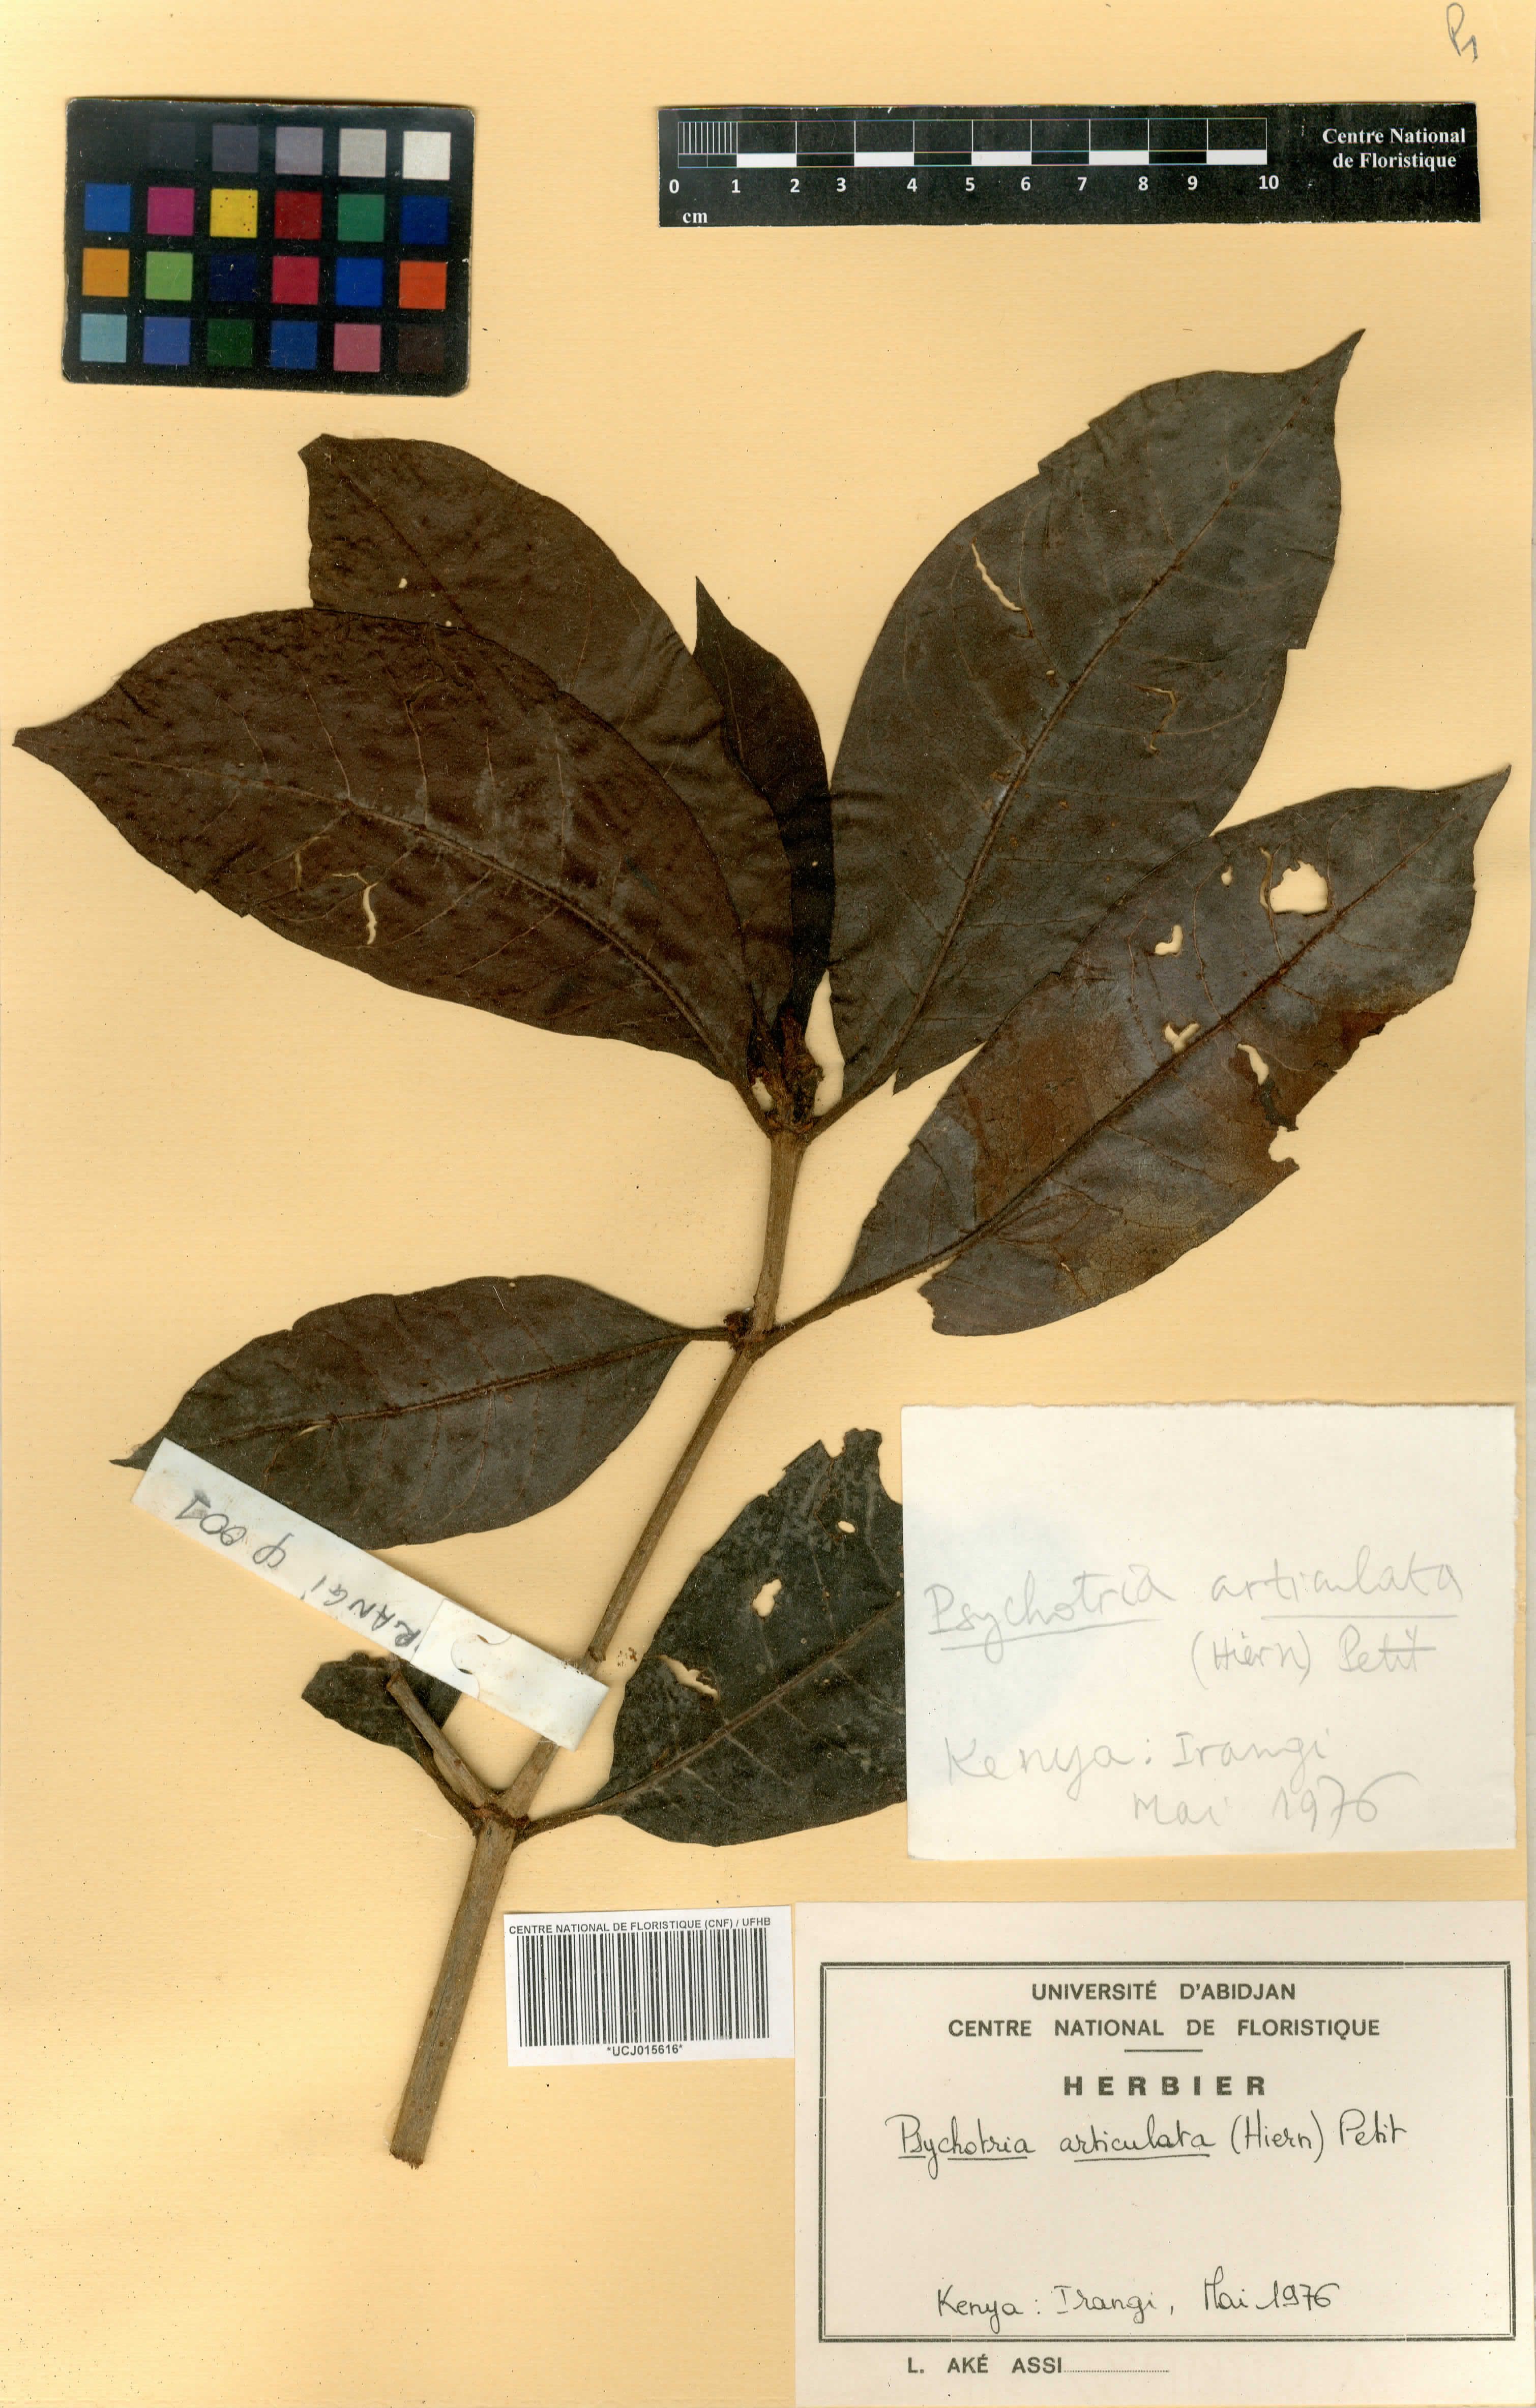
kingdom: Plantae
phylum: Tracheophyta
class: Magnoliopsida
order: Gentianales
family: Rubiaceae
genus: Psychotria
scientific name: Psychotria articulata
